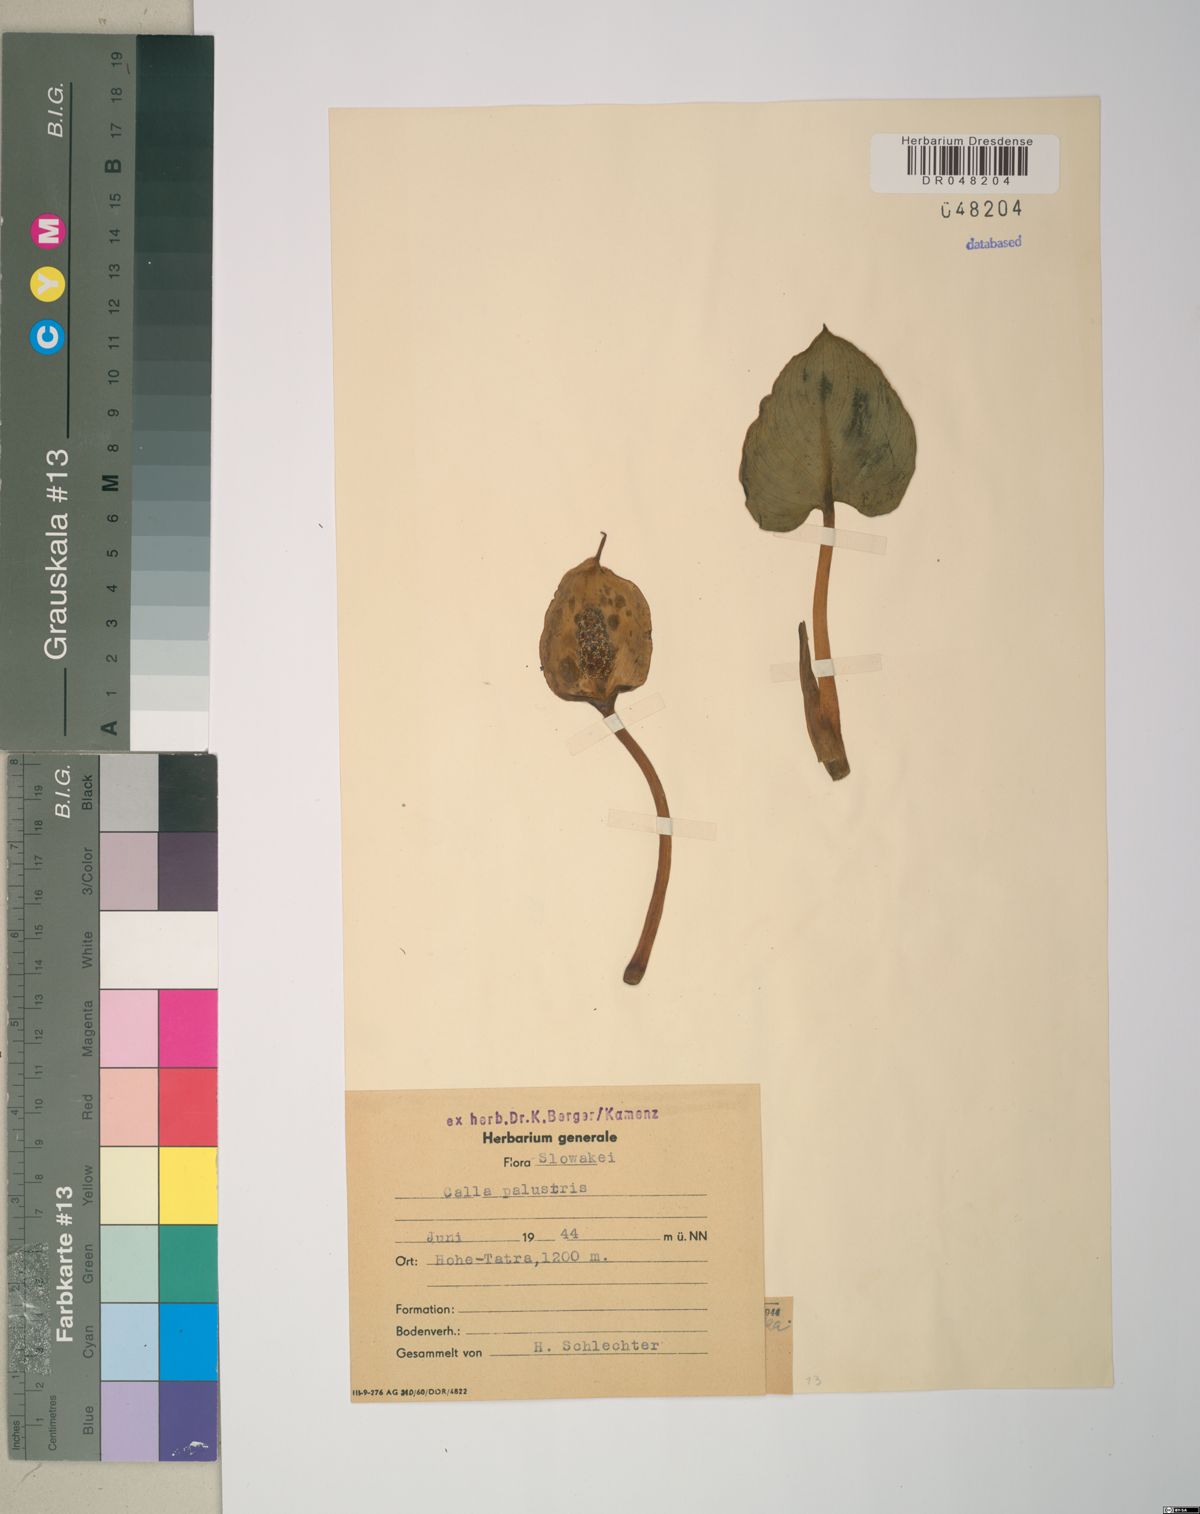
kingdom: Plantae
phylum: Tracheophyta
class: Liliopsida
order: Alismatales
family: Araceae
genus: Calla
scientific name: Calla palustris
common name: Bog arum
